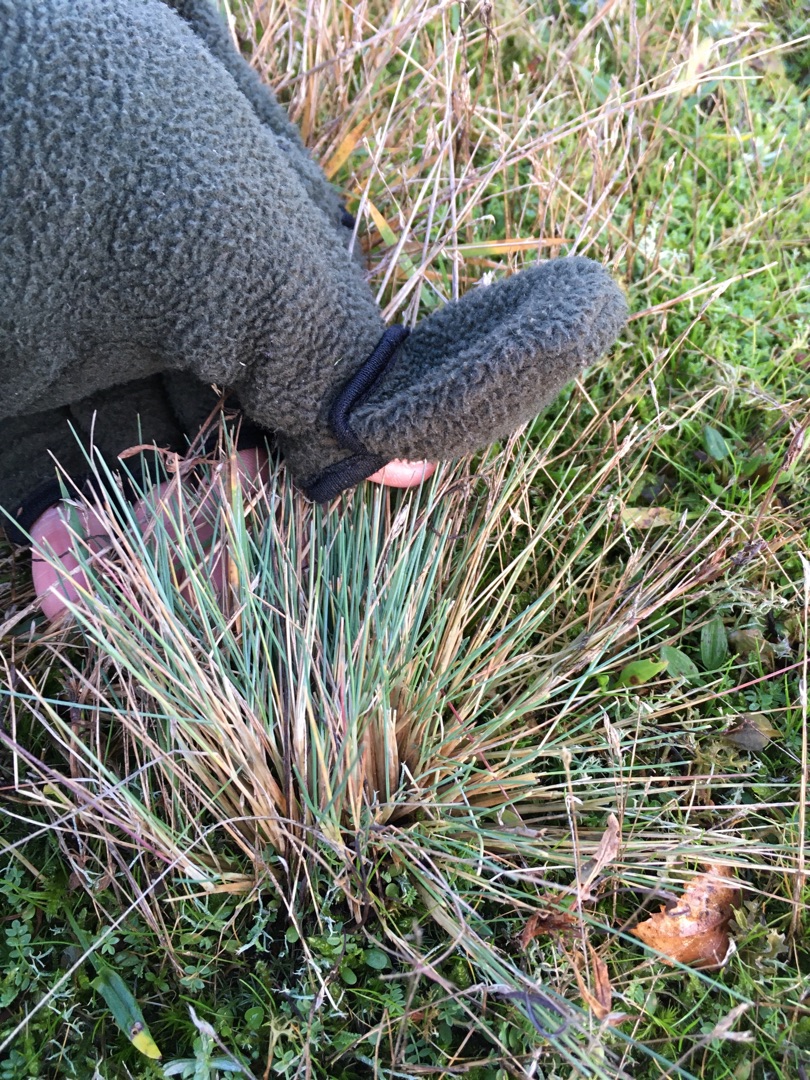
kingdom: Plantae
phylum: Tracheophyta
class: Liliopsida
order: Poales
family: Poaceae
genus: Corynephorus
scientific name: Corynephorus canescens
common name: Sandskæg
